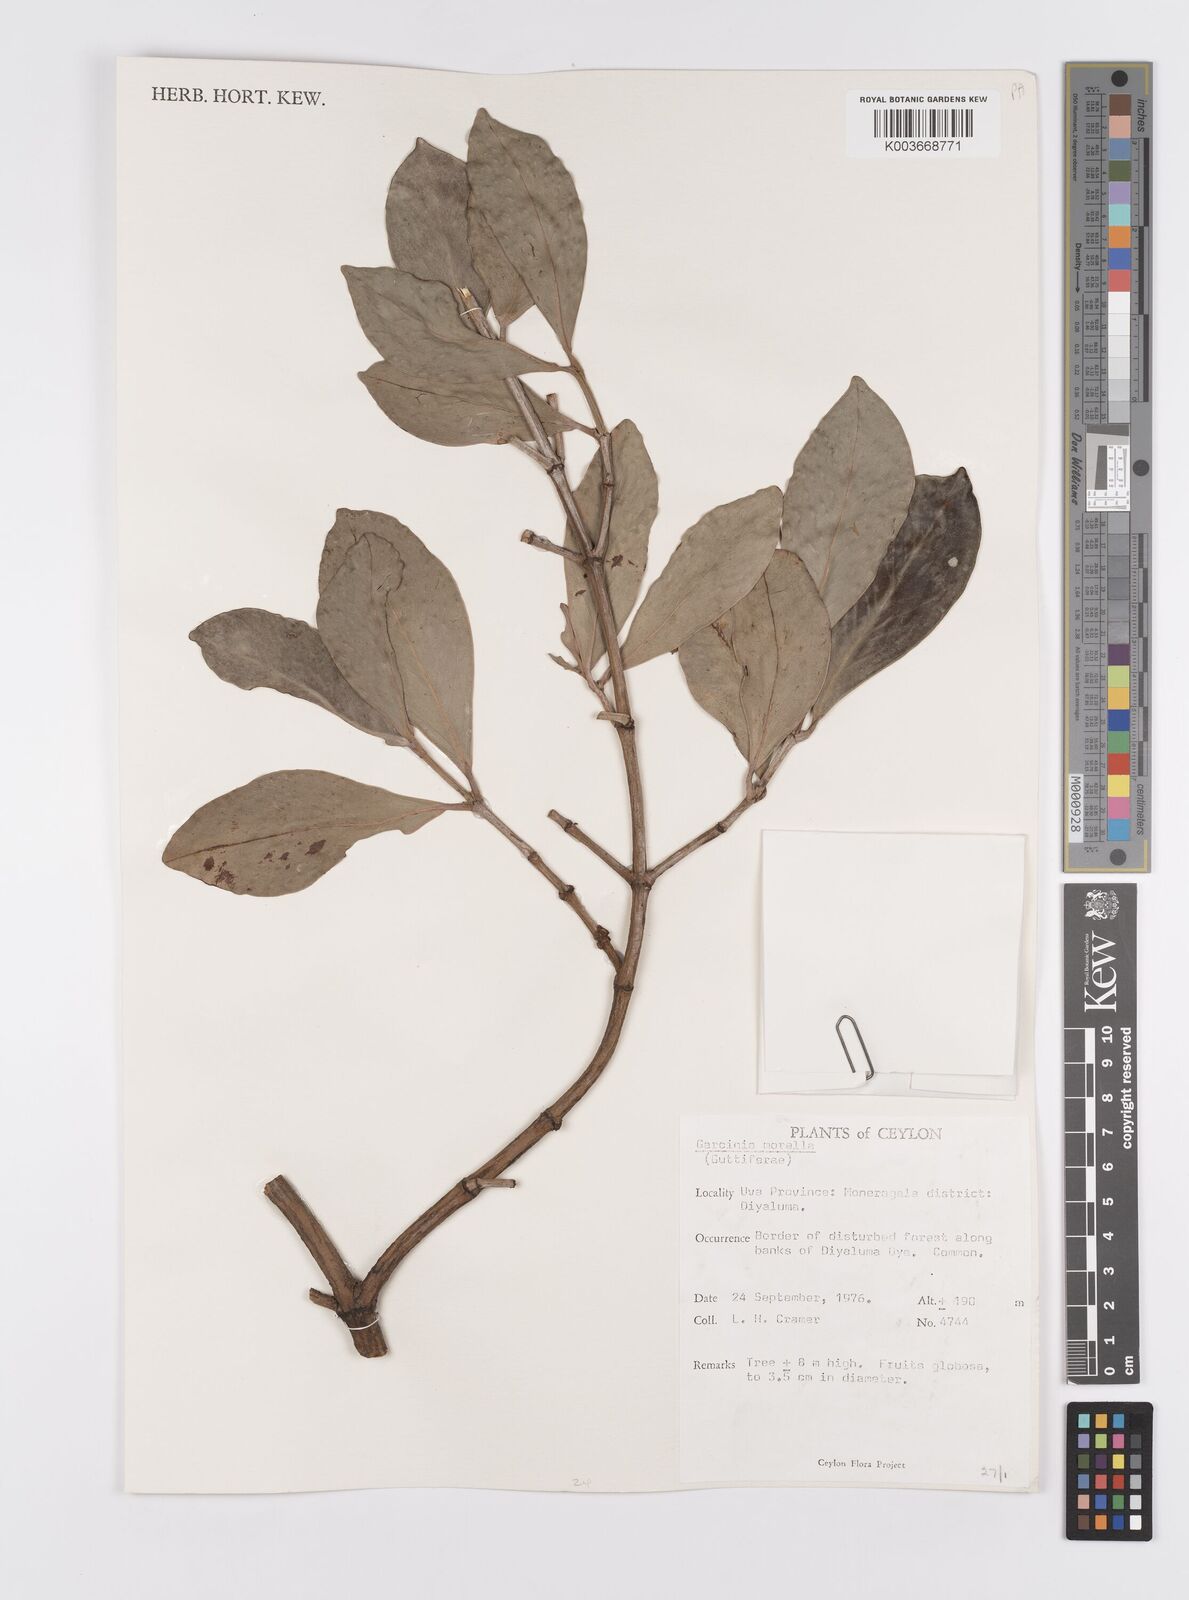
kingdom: Plantae
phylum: Tracheophyta
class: Magnoliopsida
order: Malpighiales
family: Clusiaceae
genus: Garcinia
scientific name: Garcinia morella
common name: Indian gamboge-tree
